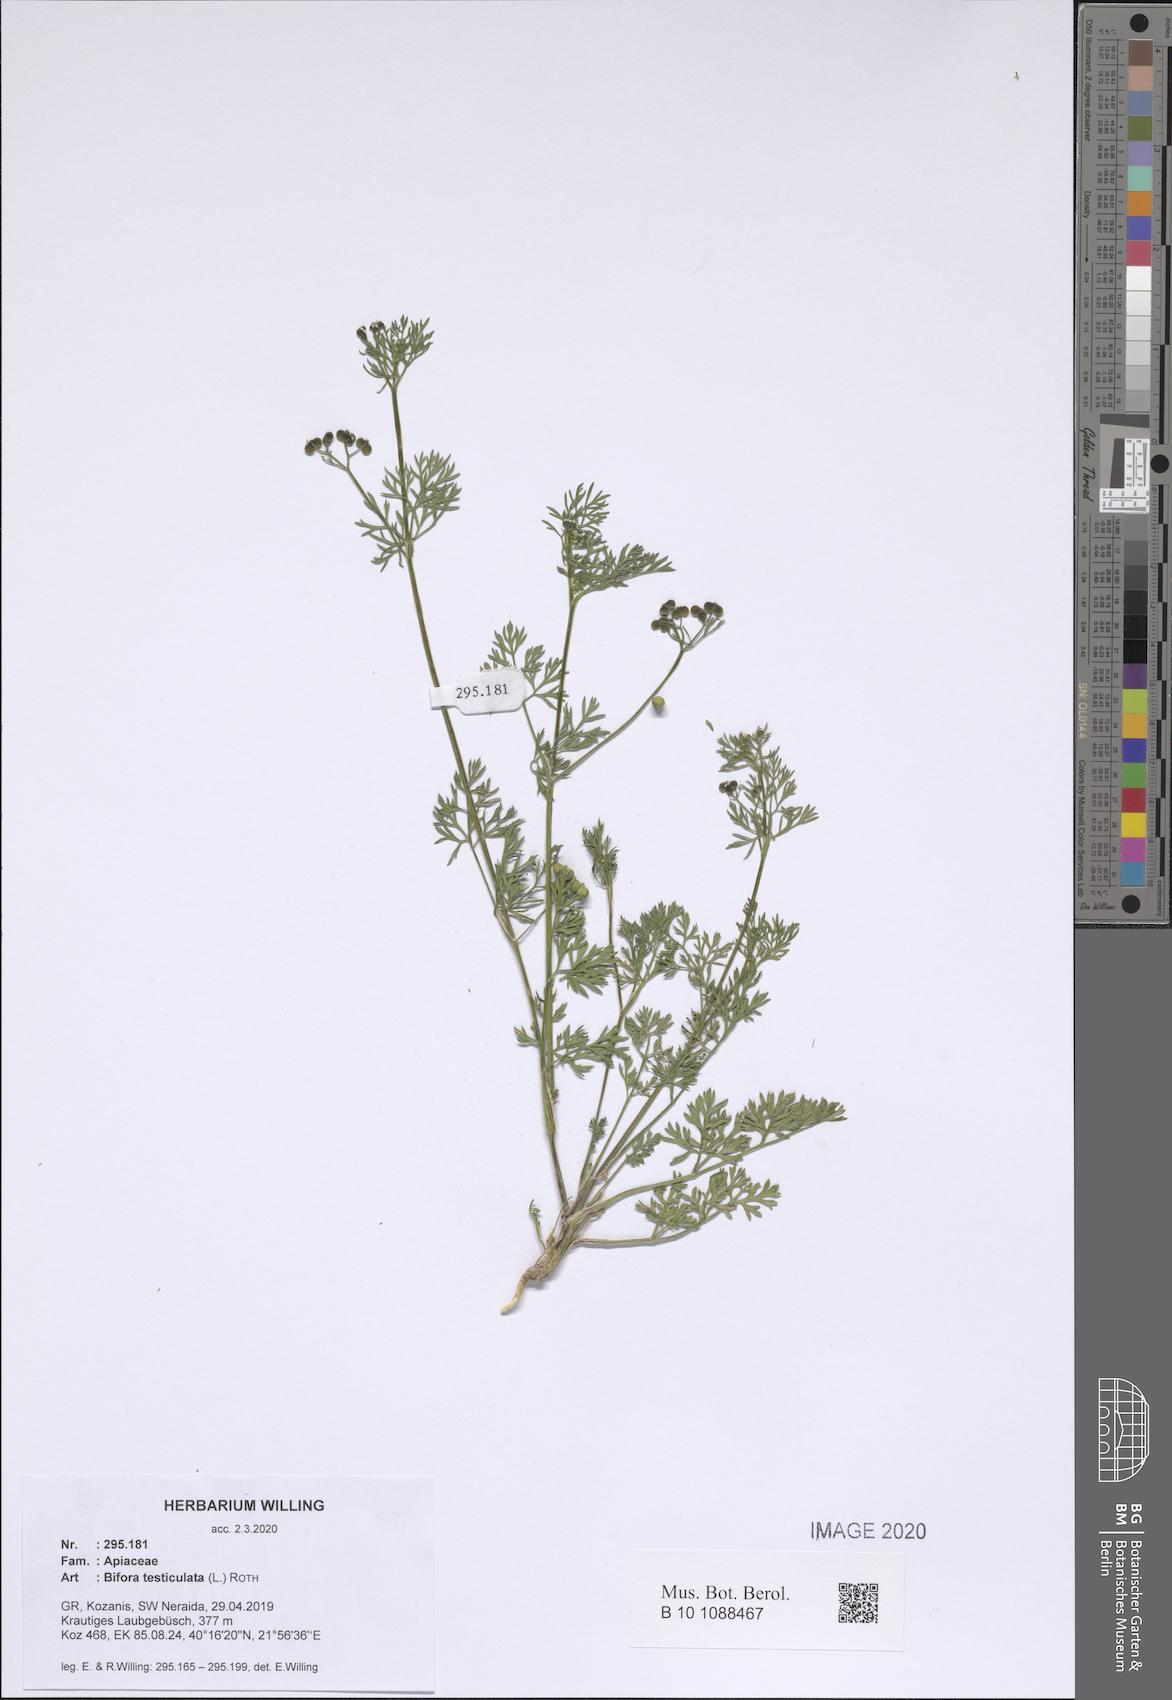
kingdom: Plantae
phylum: Tracheophyta
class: Magnoliopsida
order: Apiales
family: Apiaceae
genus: Bifora
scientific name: Bifora testiculata
